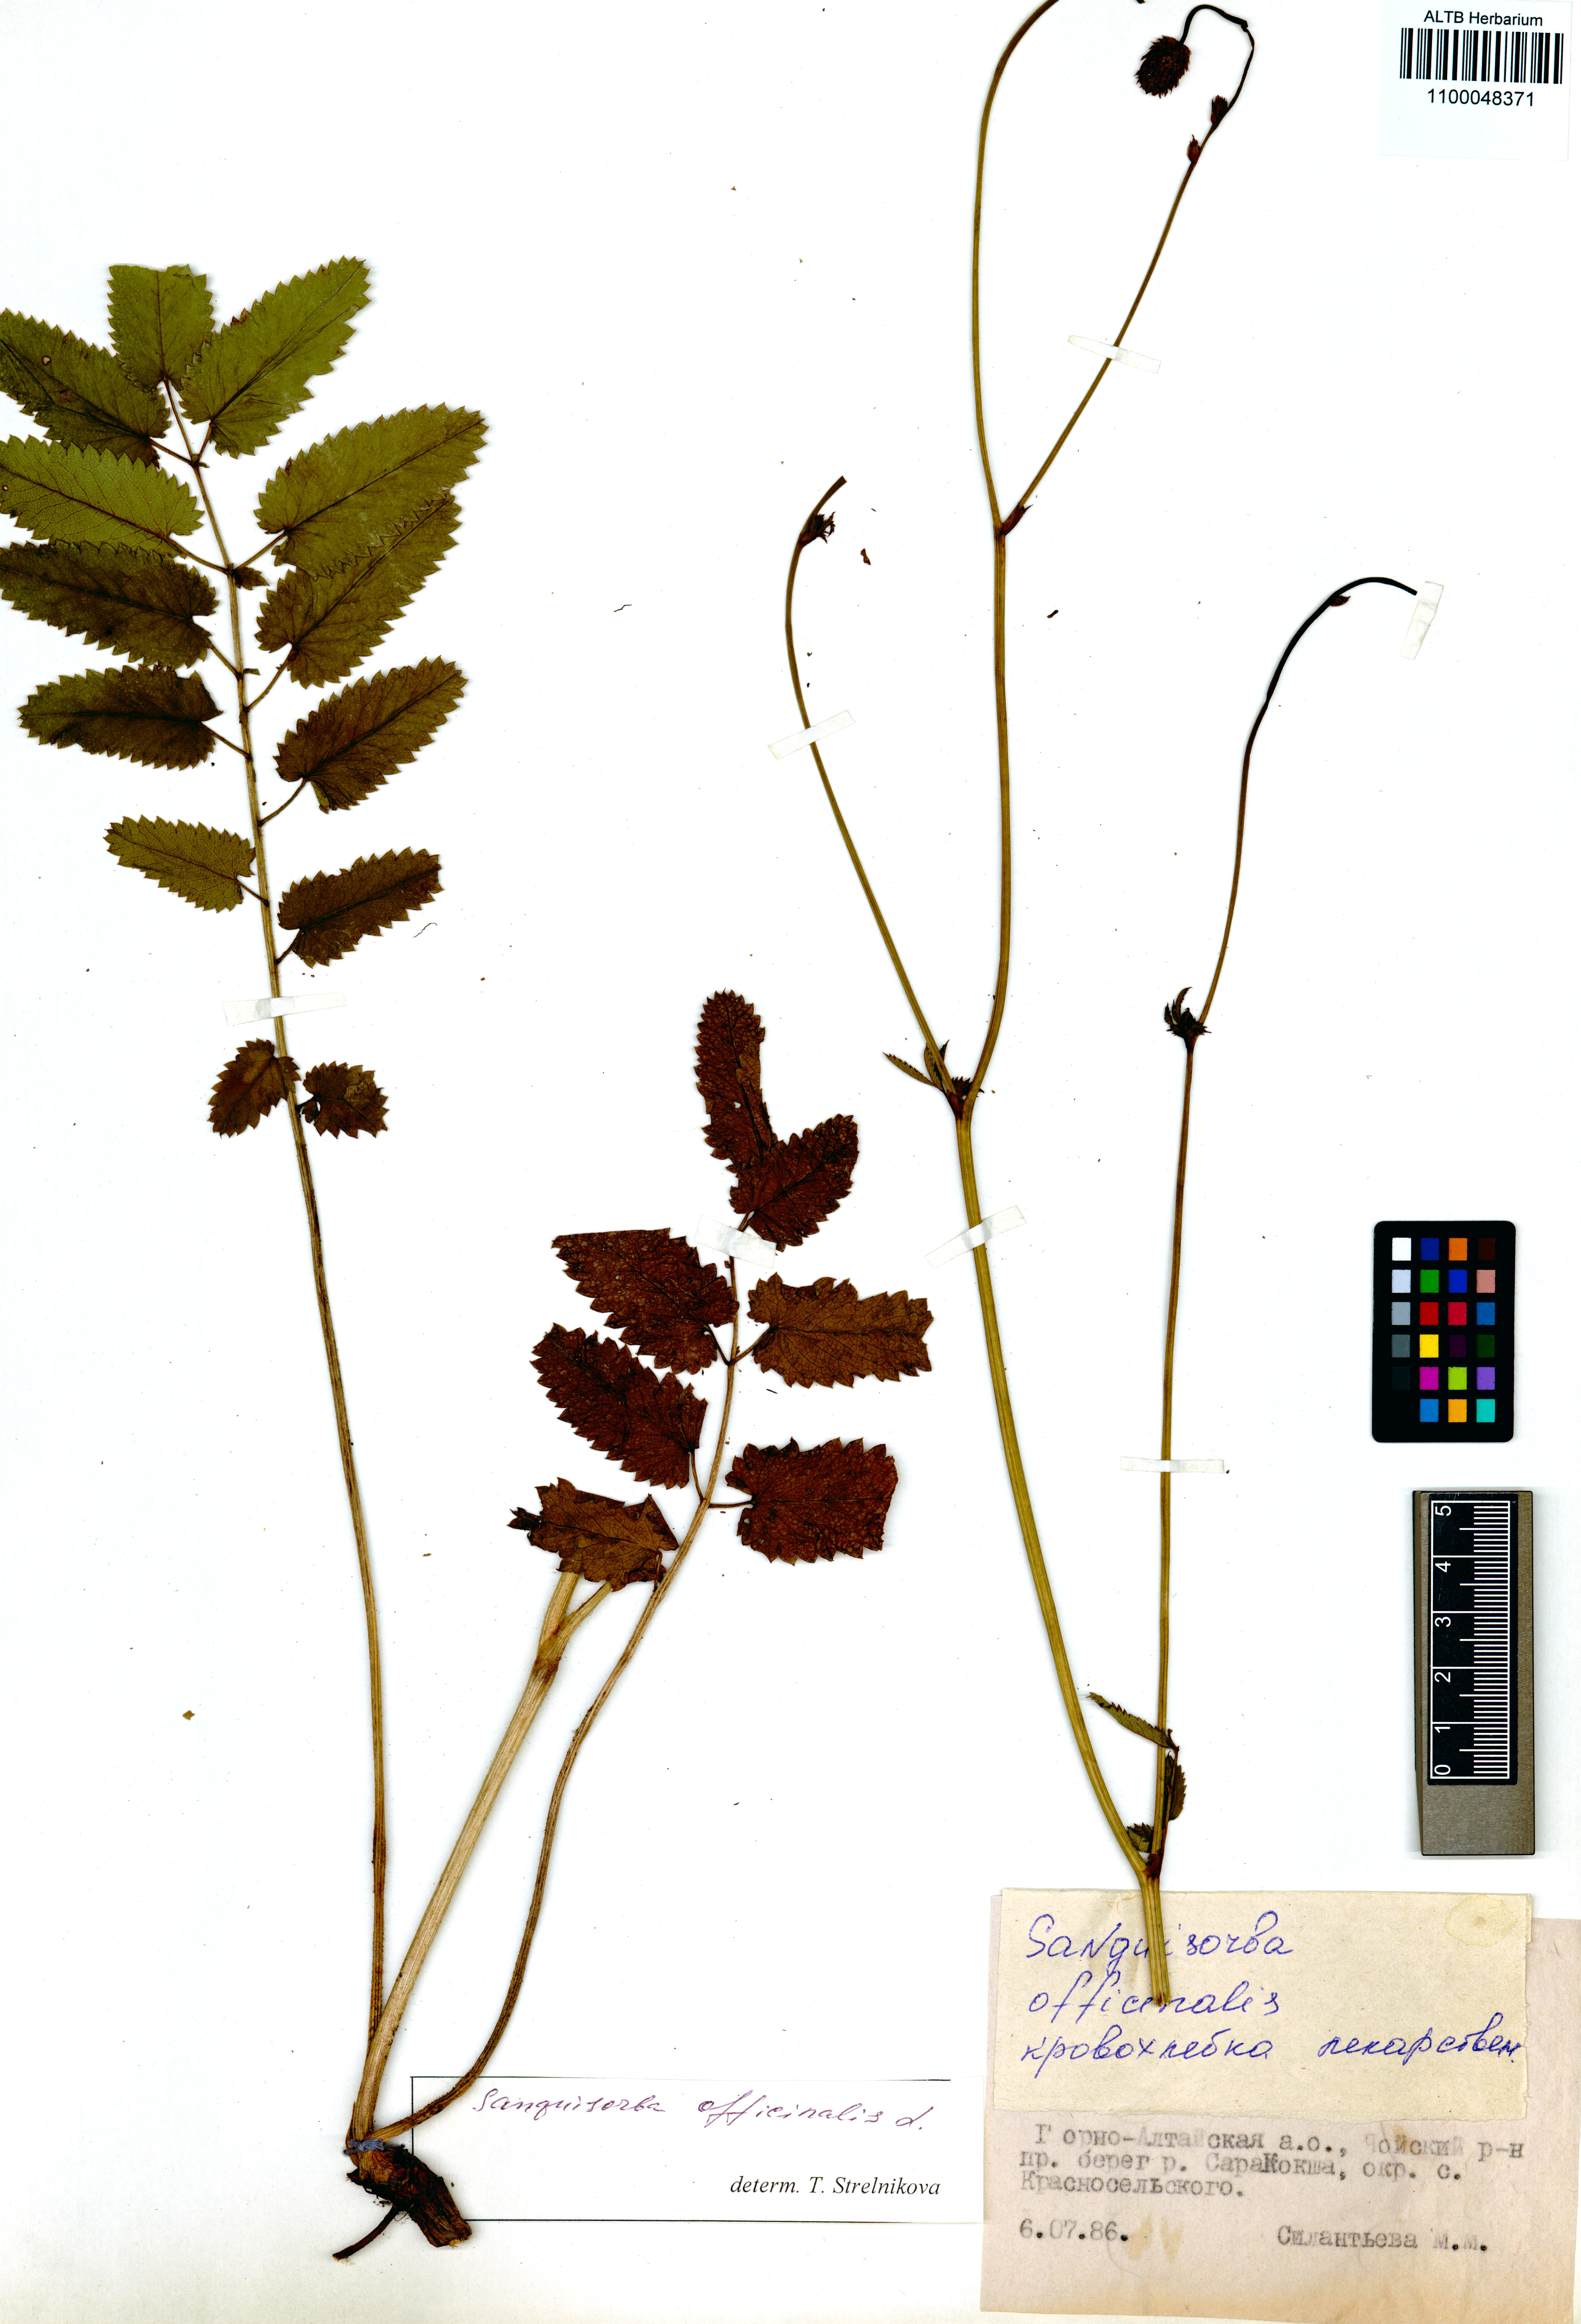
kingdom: Plantae
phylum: Tracheophyta
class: Magnoliopsida
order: Rosales
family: Rosaceae
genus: Sanguisorba
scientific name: Sanguisorba officinalis
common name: Great burnet
